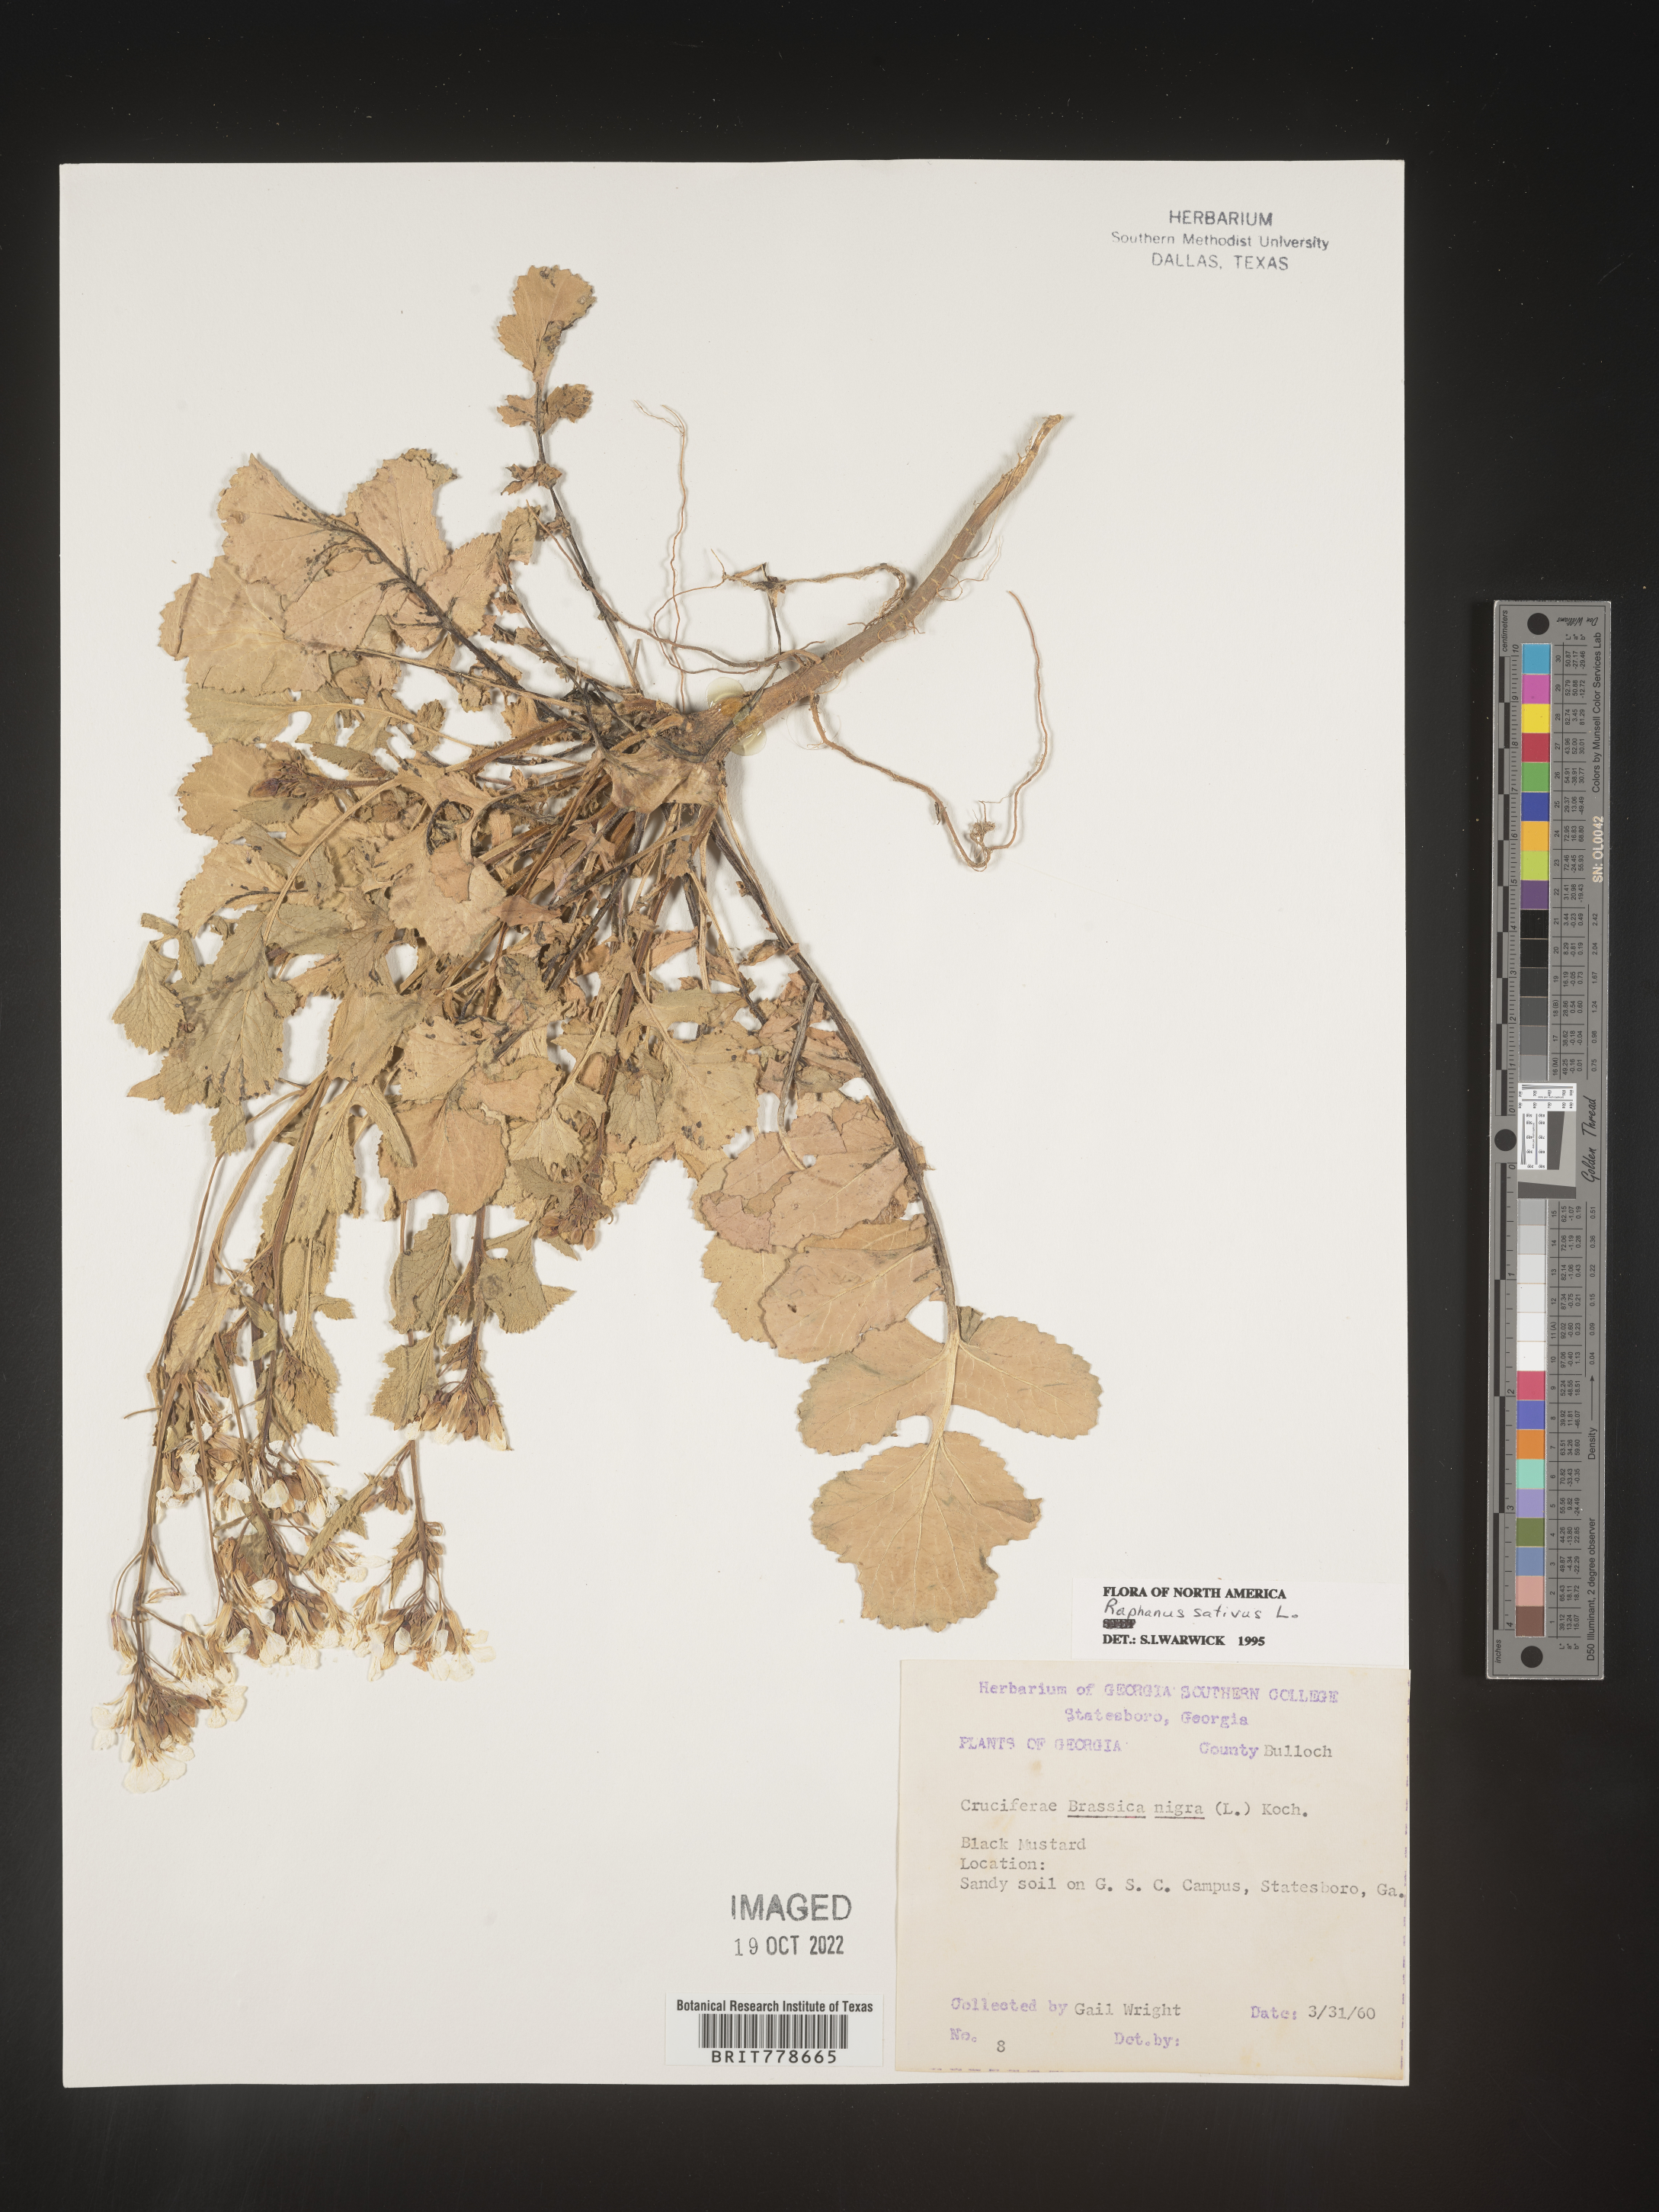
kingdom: Plantae
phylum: Tracheophyta
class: Magnoliopsida
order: Brassicales
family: Brassicaceae
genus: Raphanus
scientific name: Raphanus sativus
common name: Cultivated radish
